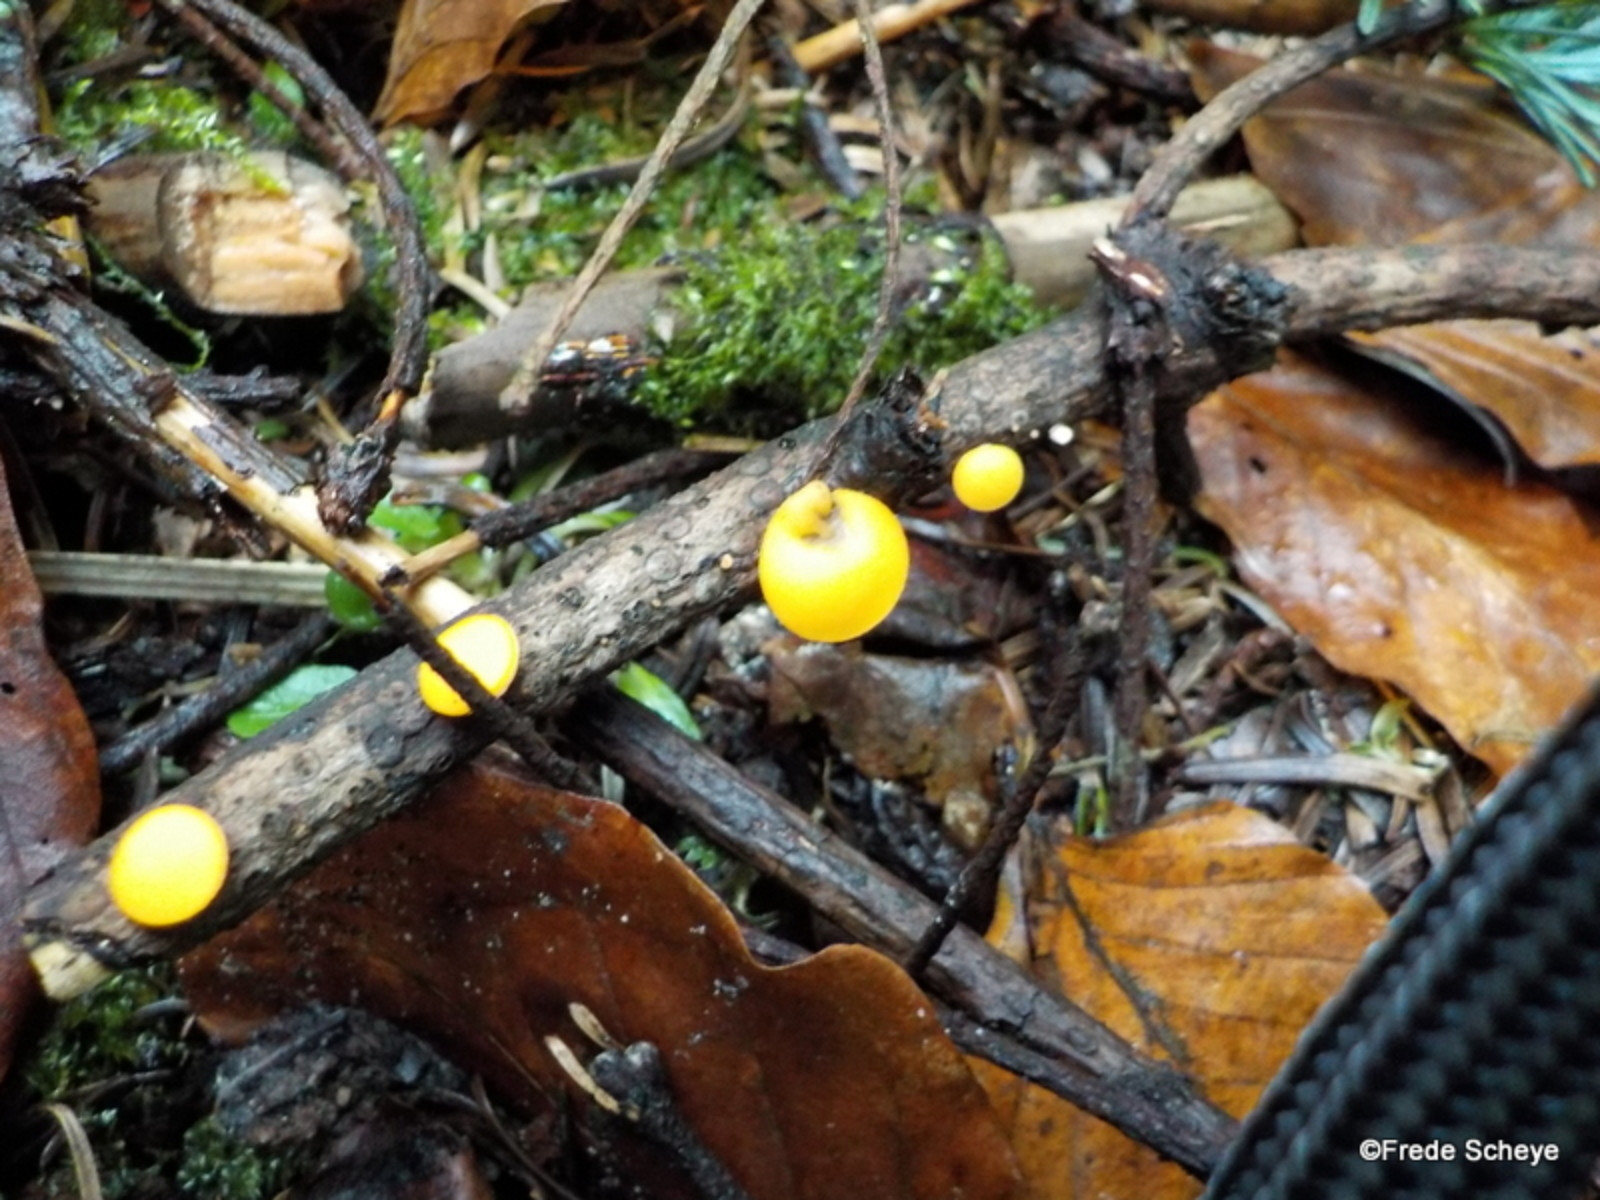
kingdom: Fungi
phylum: Ascomycota
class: Pezizomycetes
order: Pezizales
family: Sarcoscyphaceae
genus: Pithya
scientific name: Pithya vulgaris
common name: stor dukatbæger
